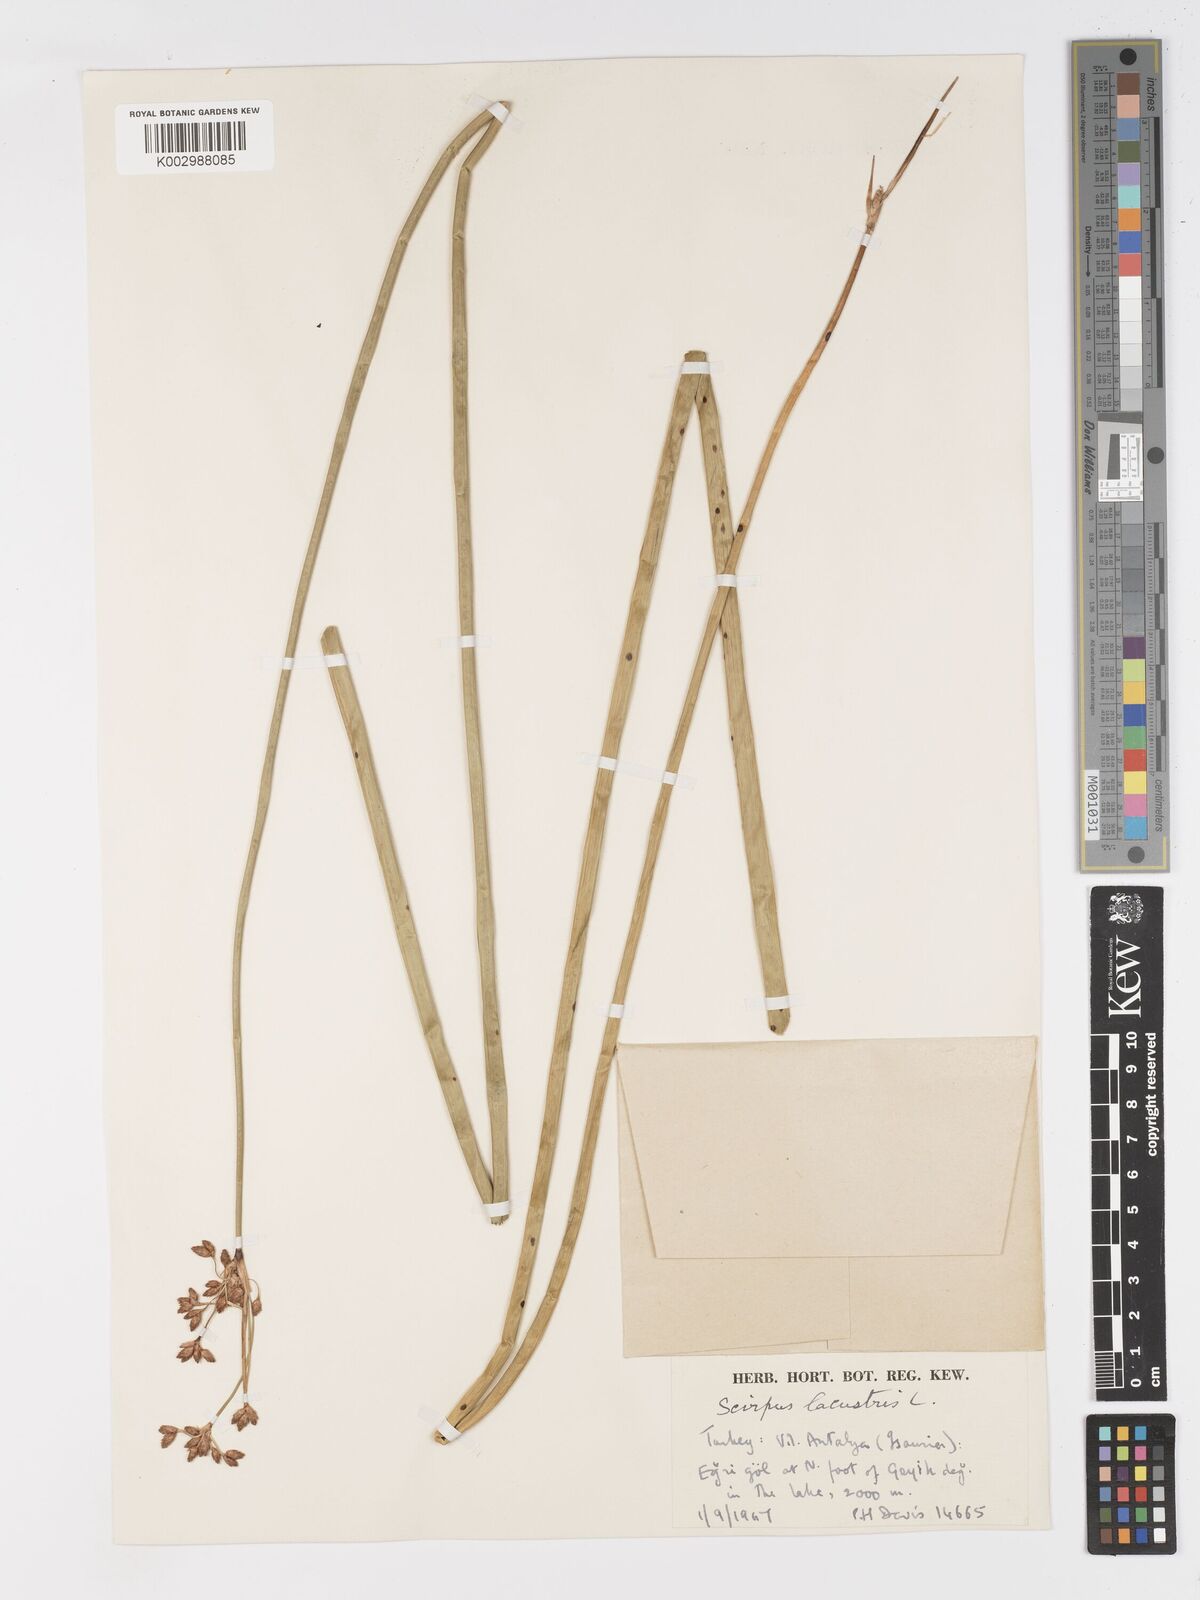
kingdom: Plantae
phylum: Tracheophyta
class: Liliopsida
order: Poales
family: Cyperaceae
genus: Schoenoplectus
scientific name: Schoenoplectus lacustris
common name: Common club-rush
